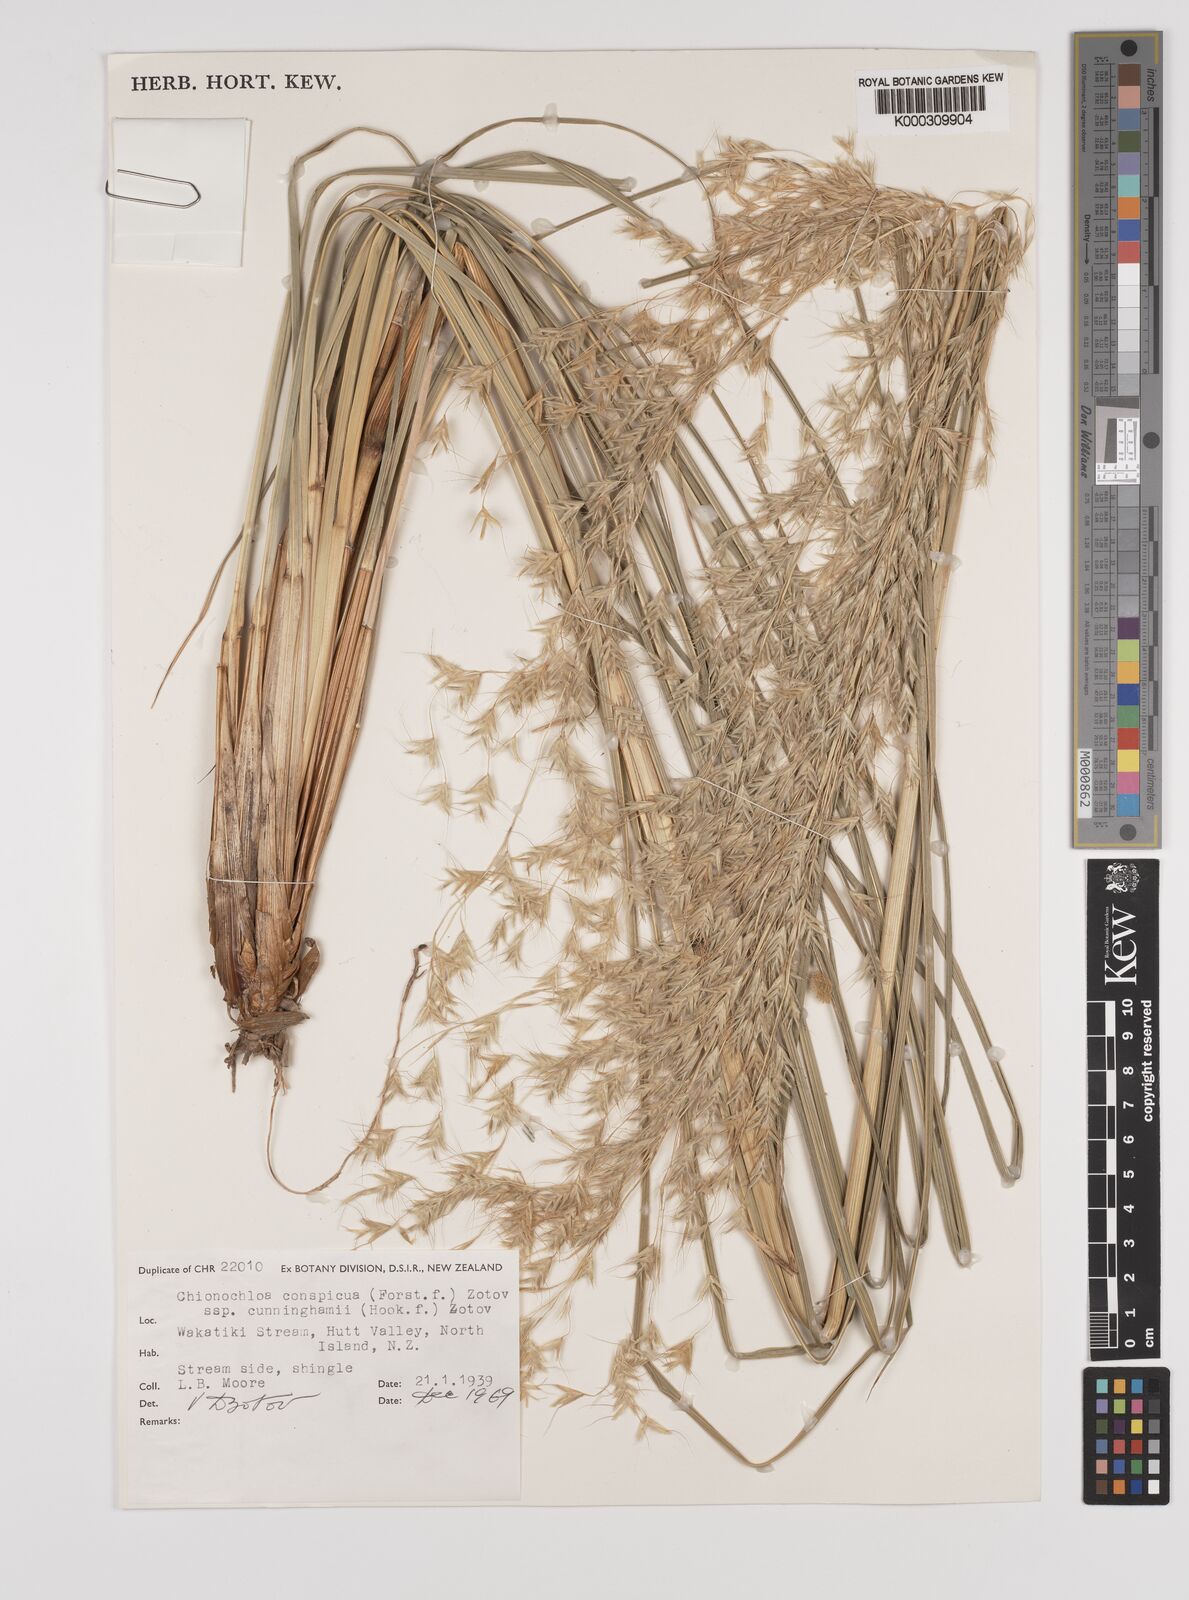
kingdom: Plantae
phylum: Tracheophyta
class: Liliopsida
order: Poales
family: Poaceae
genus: Chionochloa
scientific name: Chionochloa conspicua
